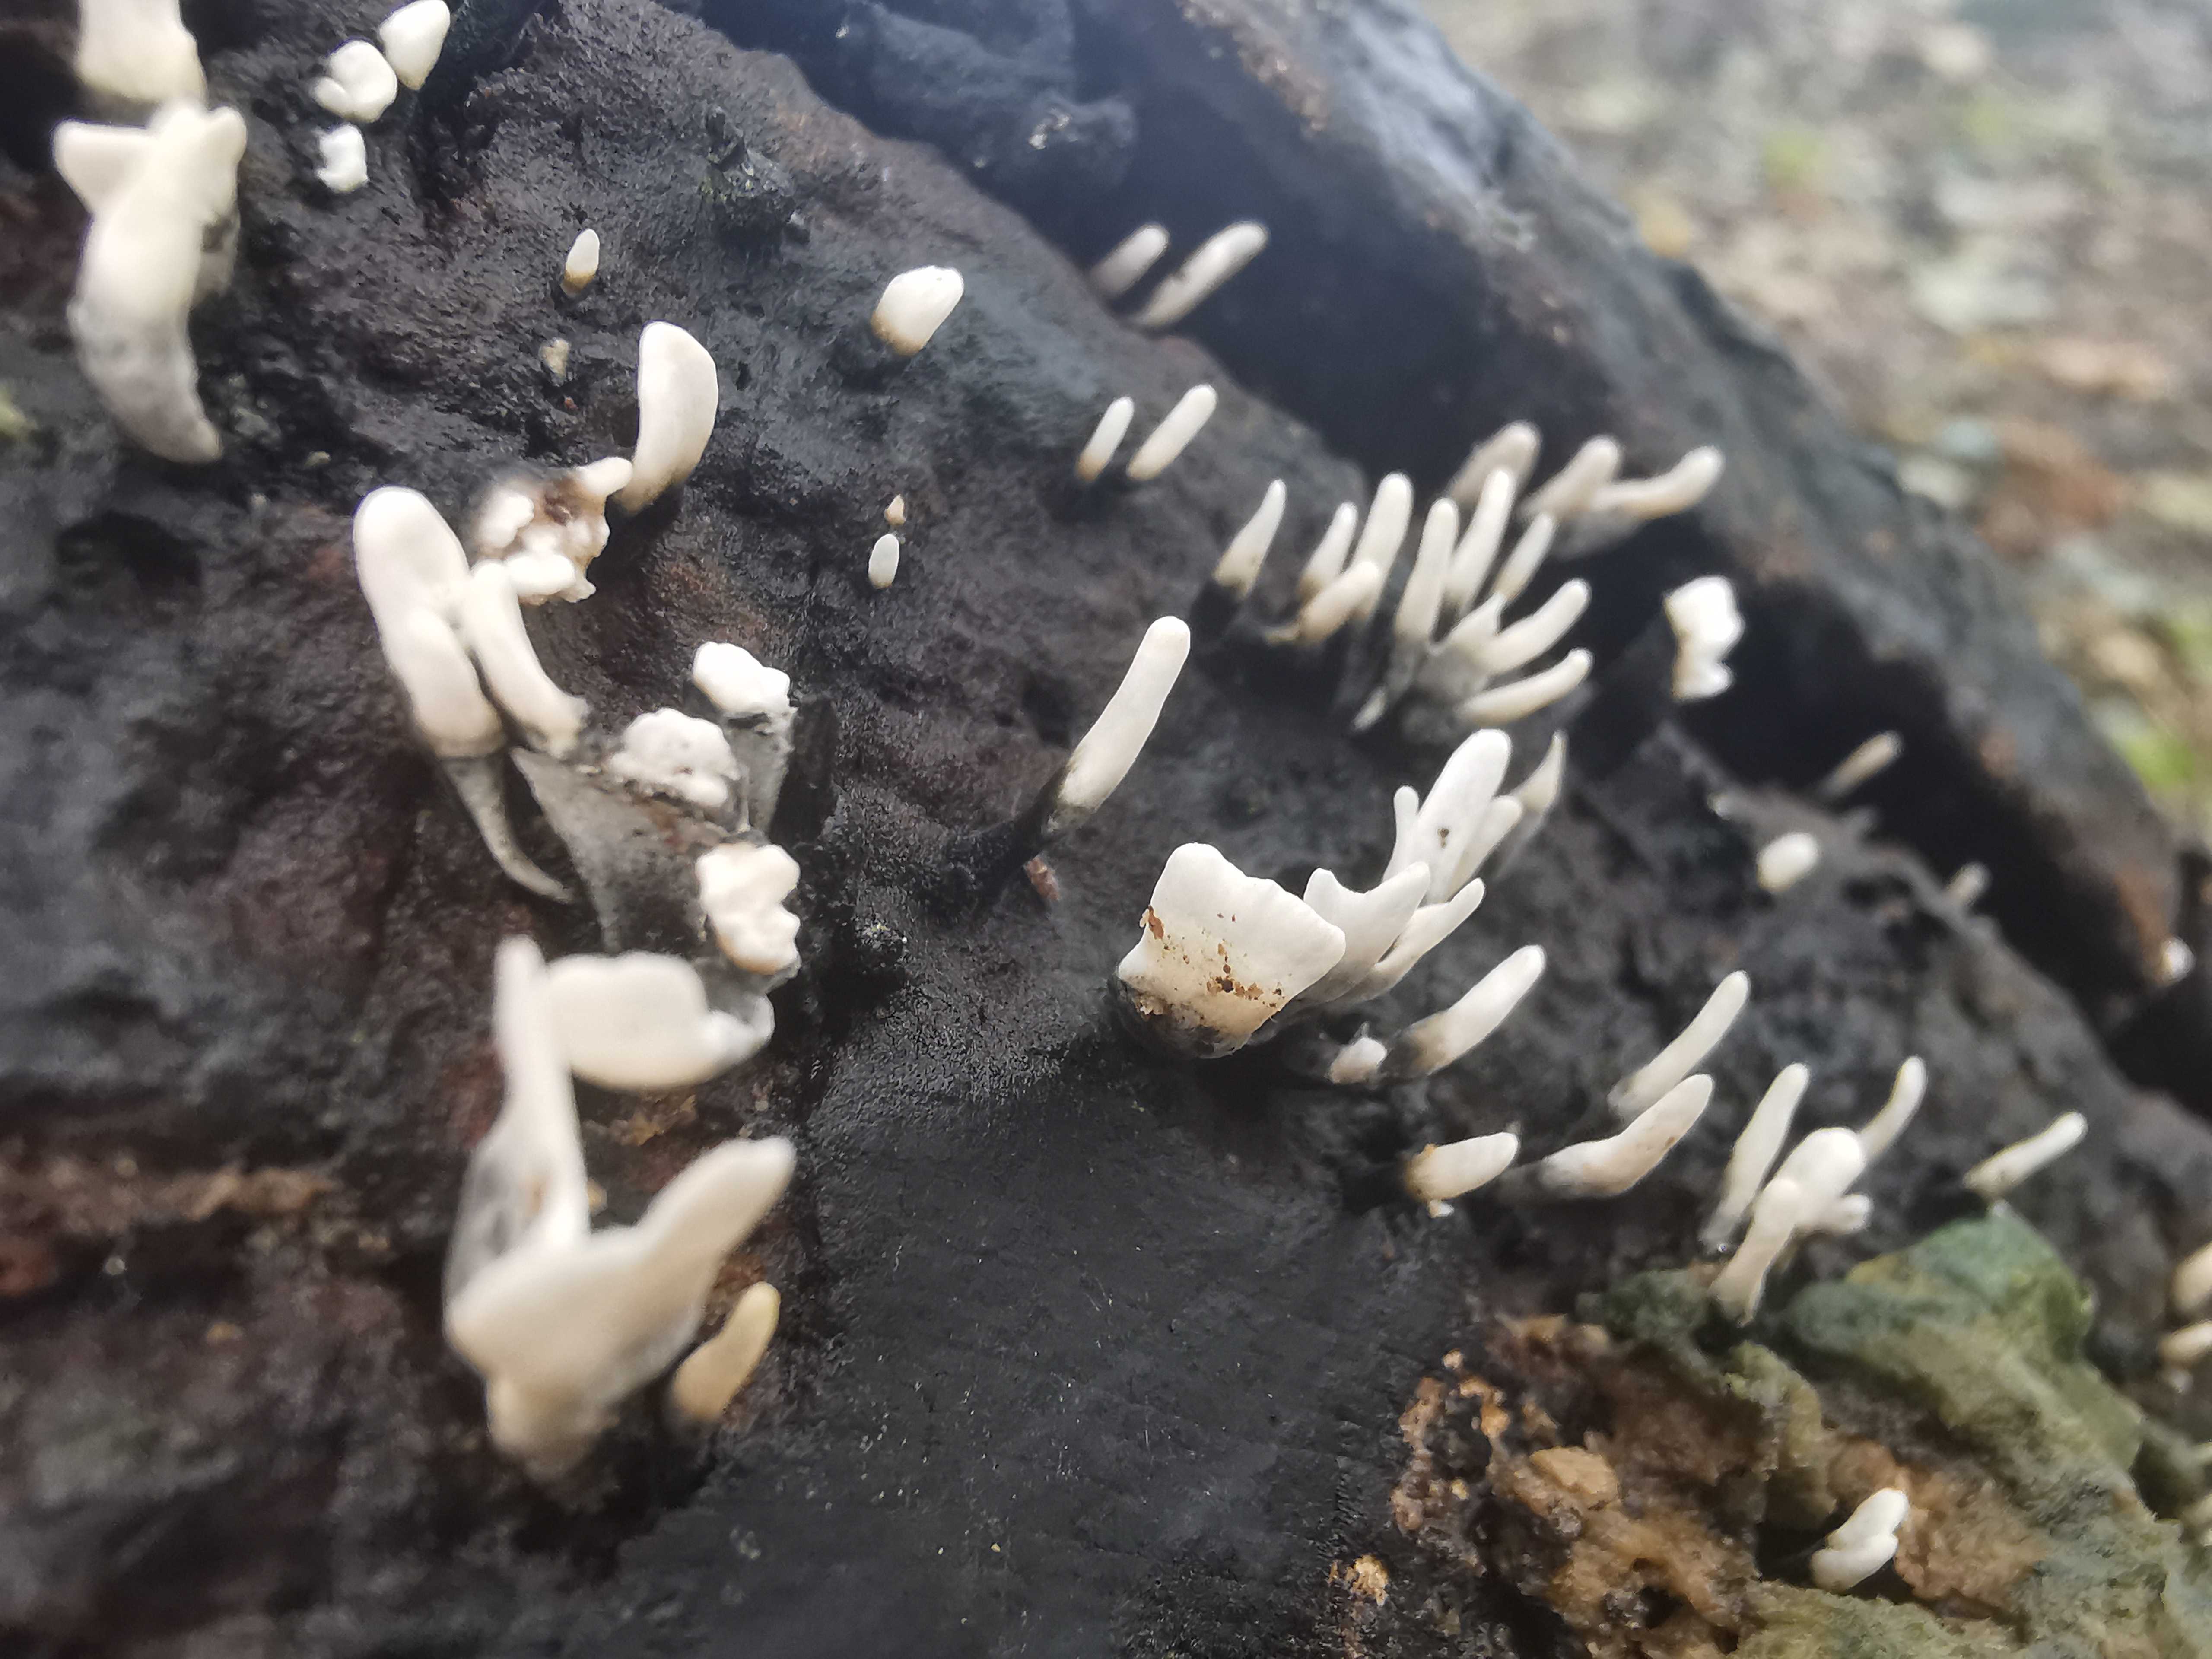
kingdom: Fungi
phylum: Ascomycota
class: Sordariomycetes
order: Xylariales
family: Xylariaceae
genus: Xylaria
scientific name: Xylaria hypoxylon
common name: grenet stødsvamp
